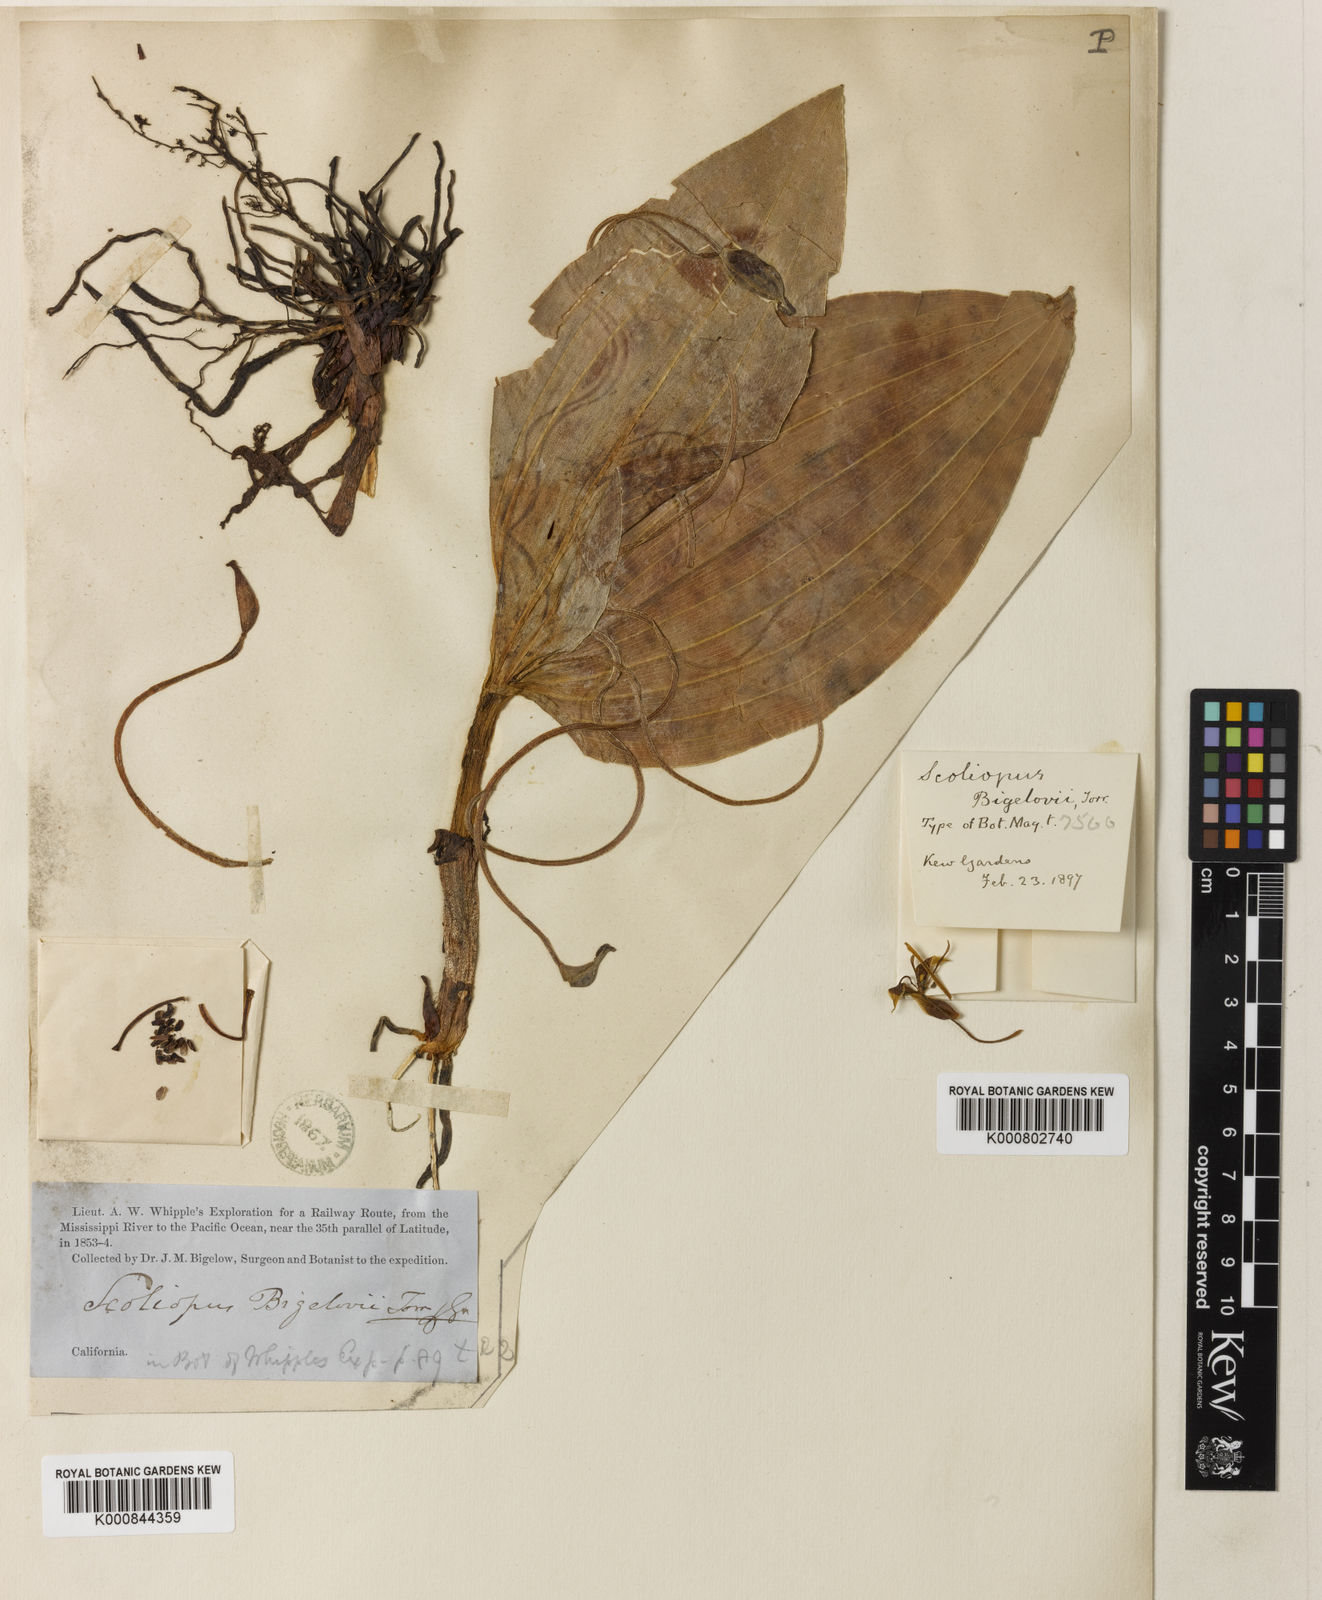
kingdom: Plantae
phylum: Tracheophyta
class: Liliopsida
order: Liliales
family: Liliaceae
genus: Scoliopus
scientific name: Scoliopus bigelovii
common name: Foetid adder's-tongue
